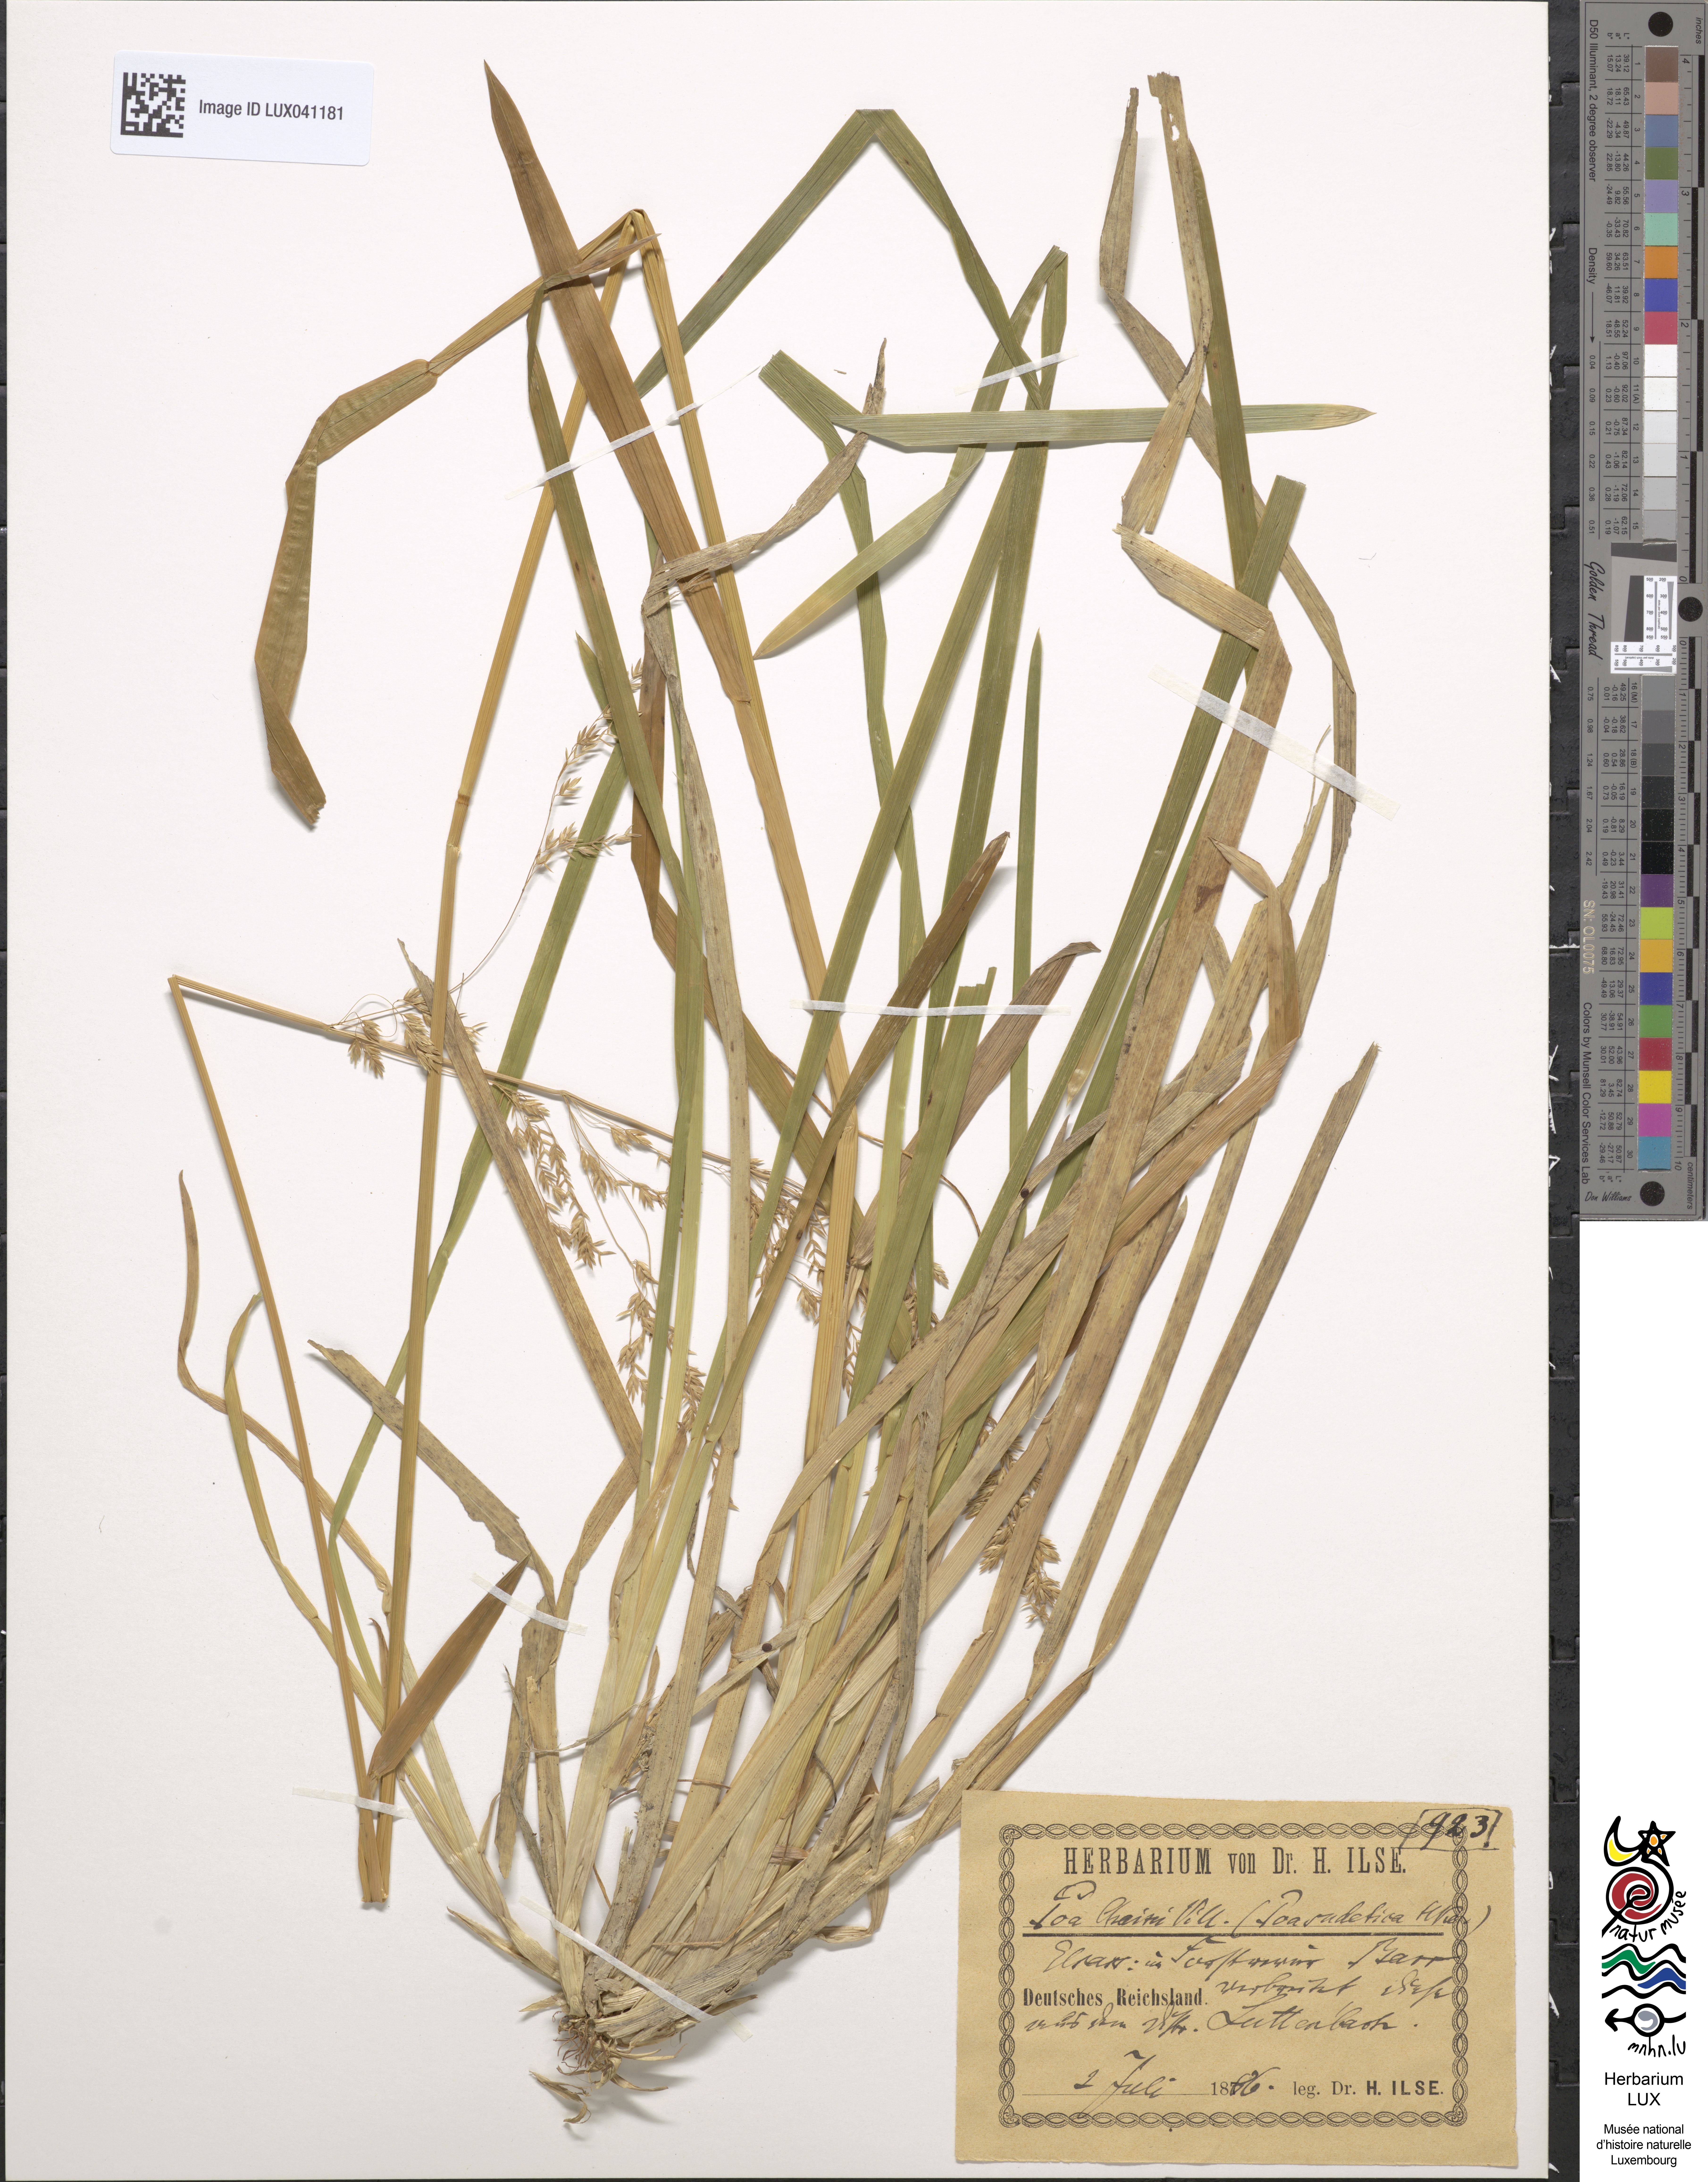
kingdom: Plantae
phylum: Tracheophyta
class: Liliopsida
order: Poales
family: Poaceae
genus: Poa
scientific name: Poa chaixii
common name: Broad-leaved meadow-grass
